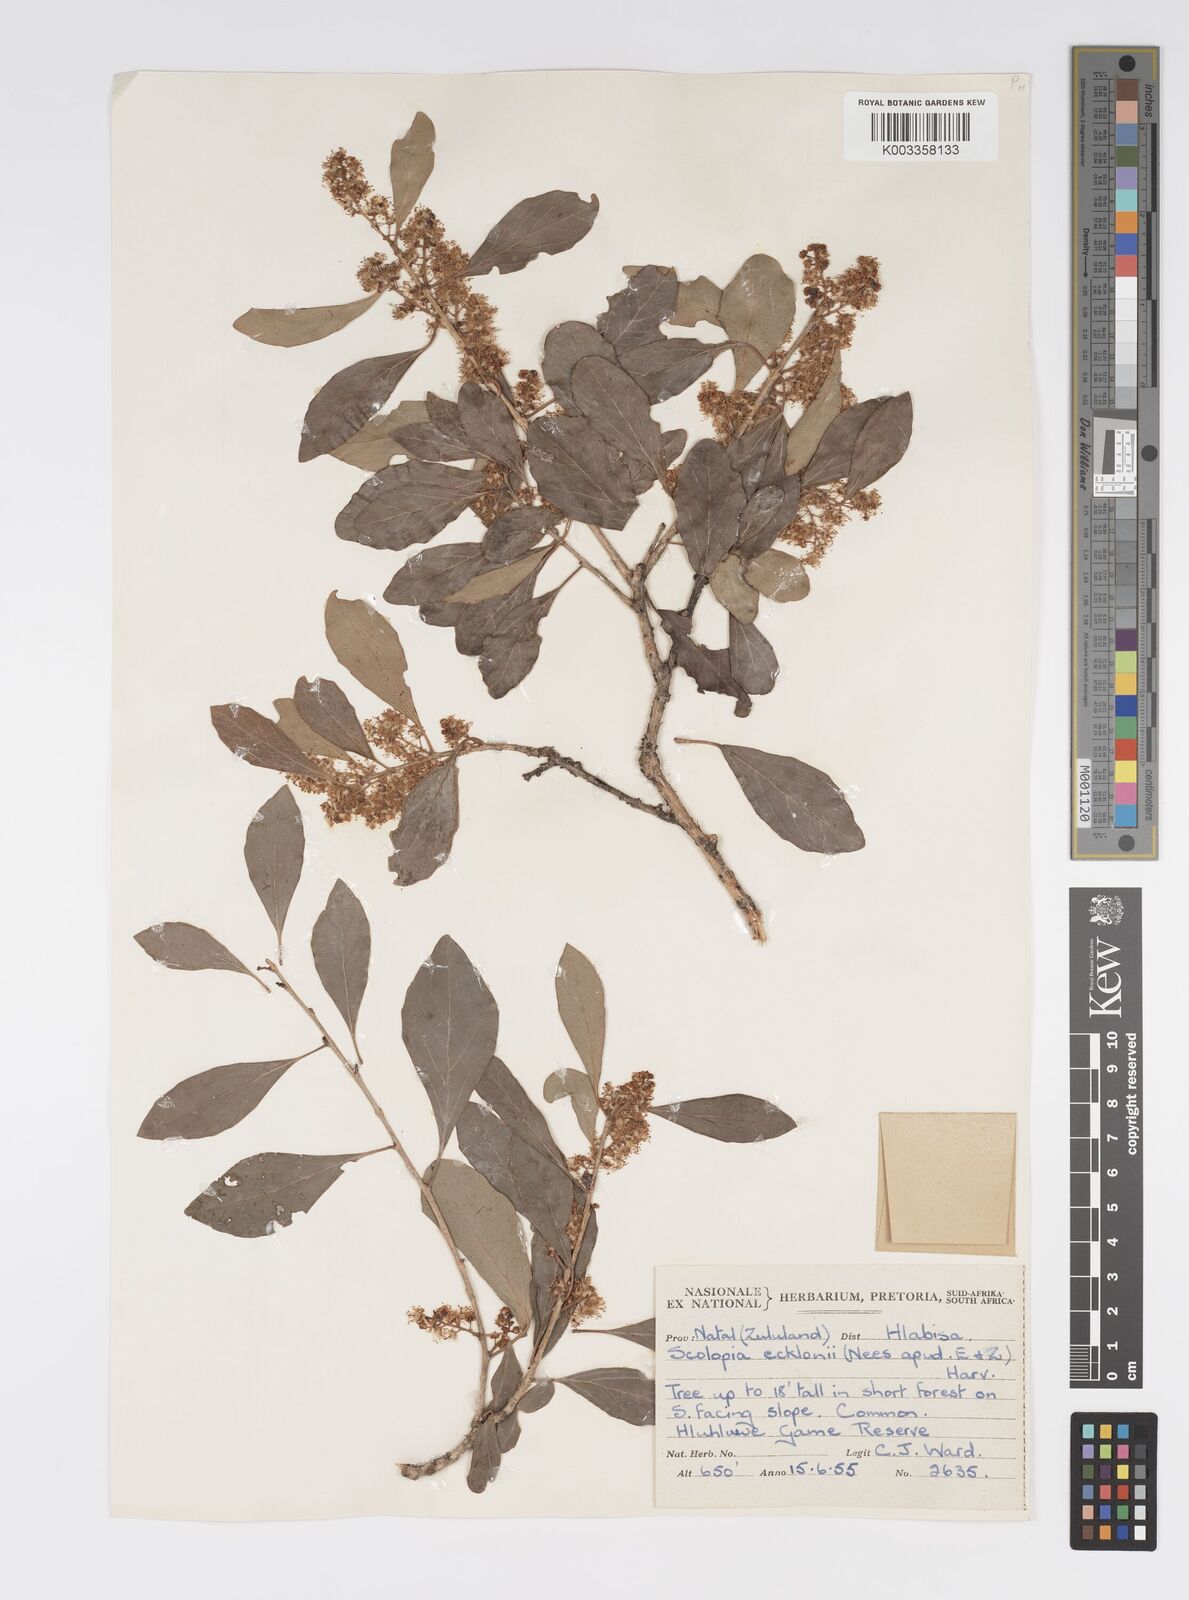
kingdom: Plantae
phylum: Tracheophyta
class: Magnoliopsida
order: Malpighiales
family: Salicaceae
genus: Scolopia
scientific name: Scolopia zeyheri
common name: Thorn pear
